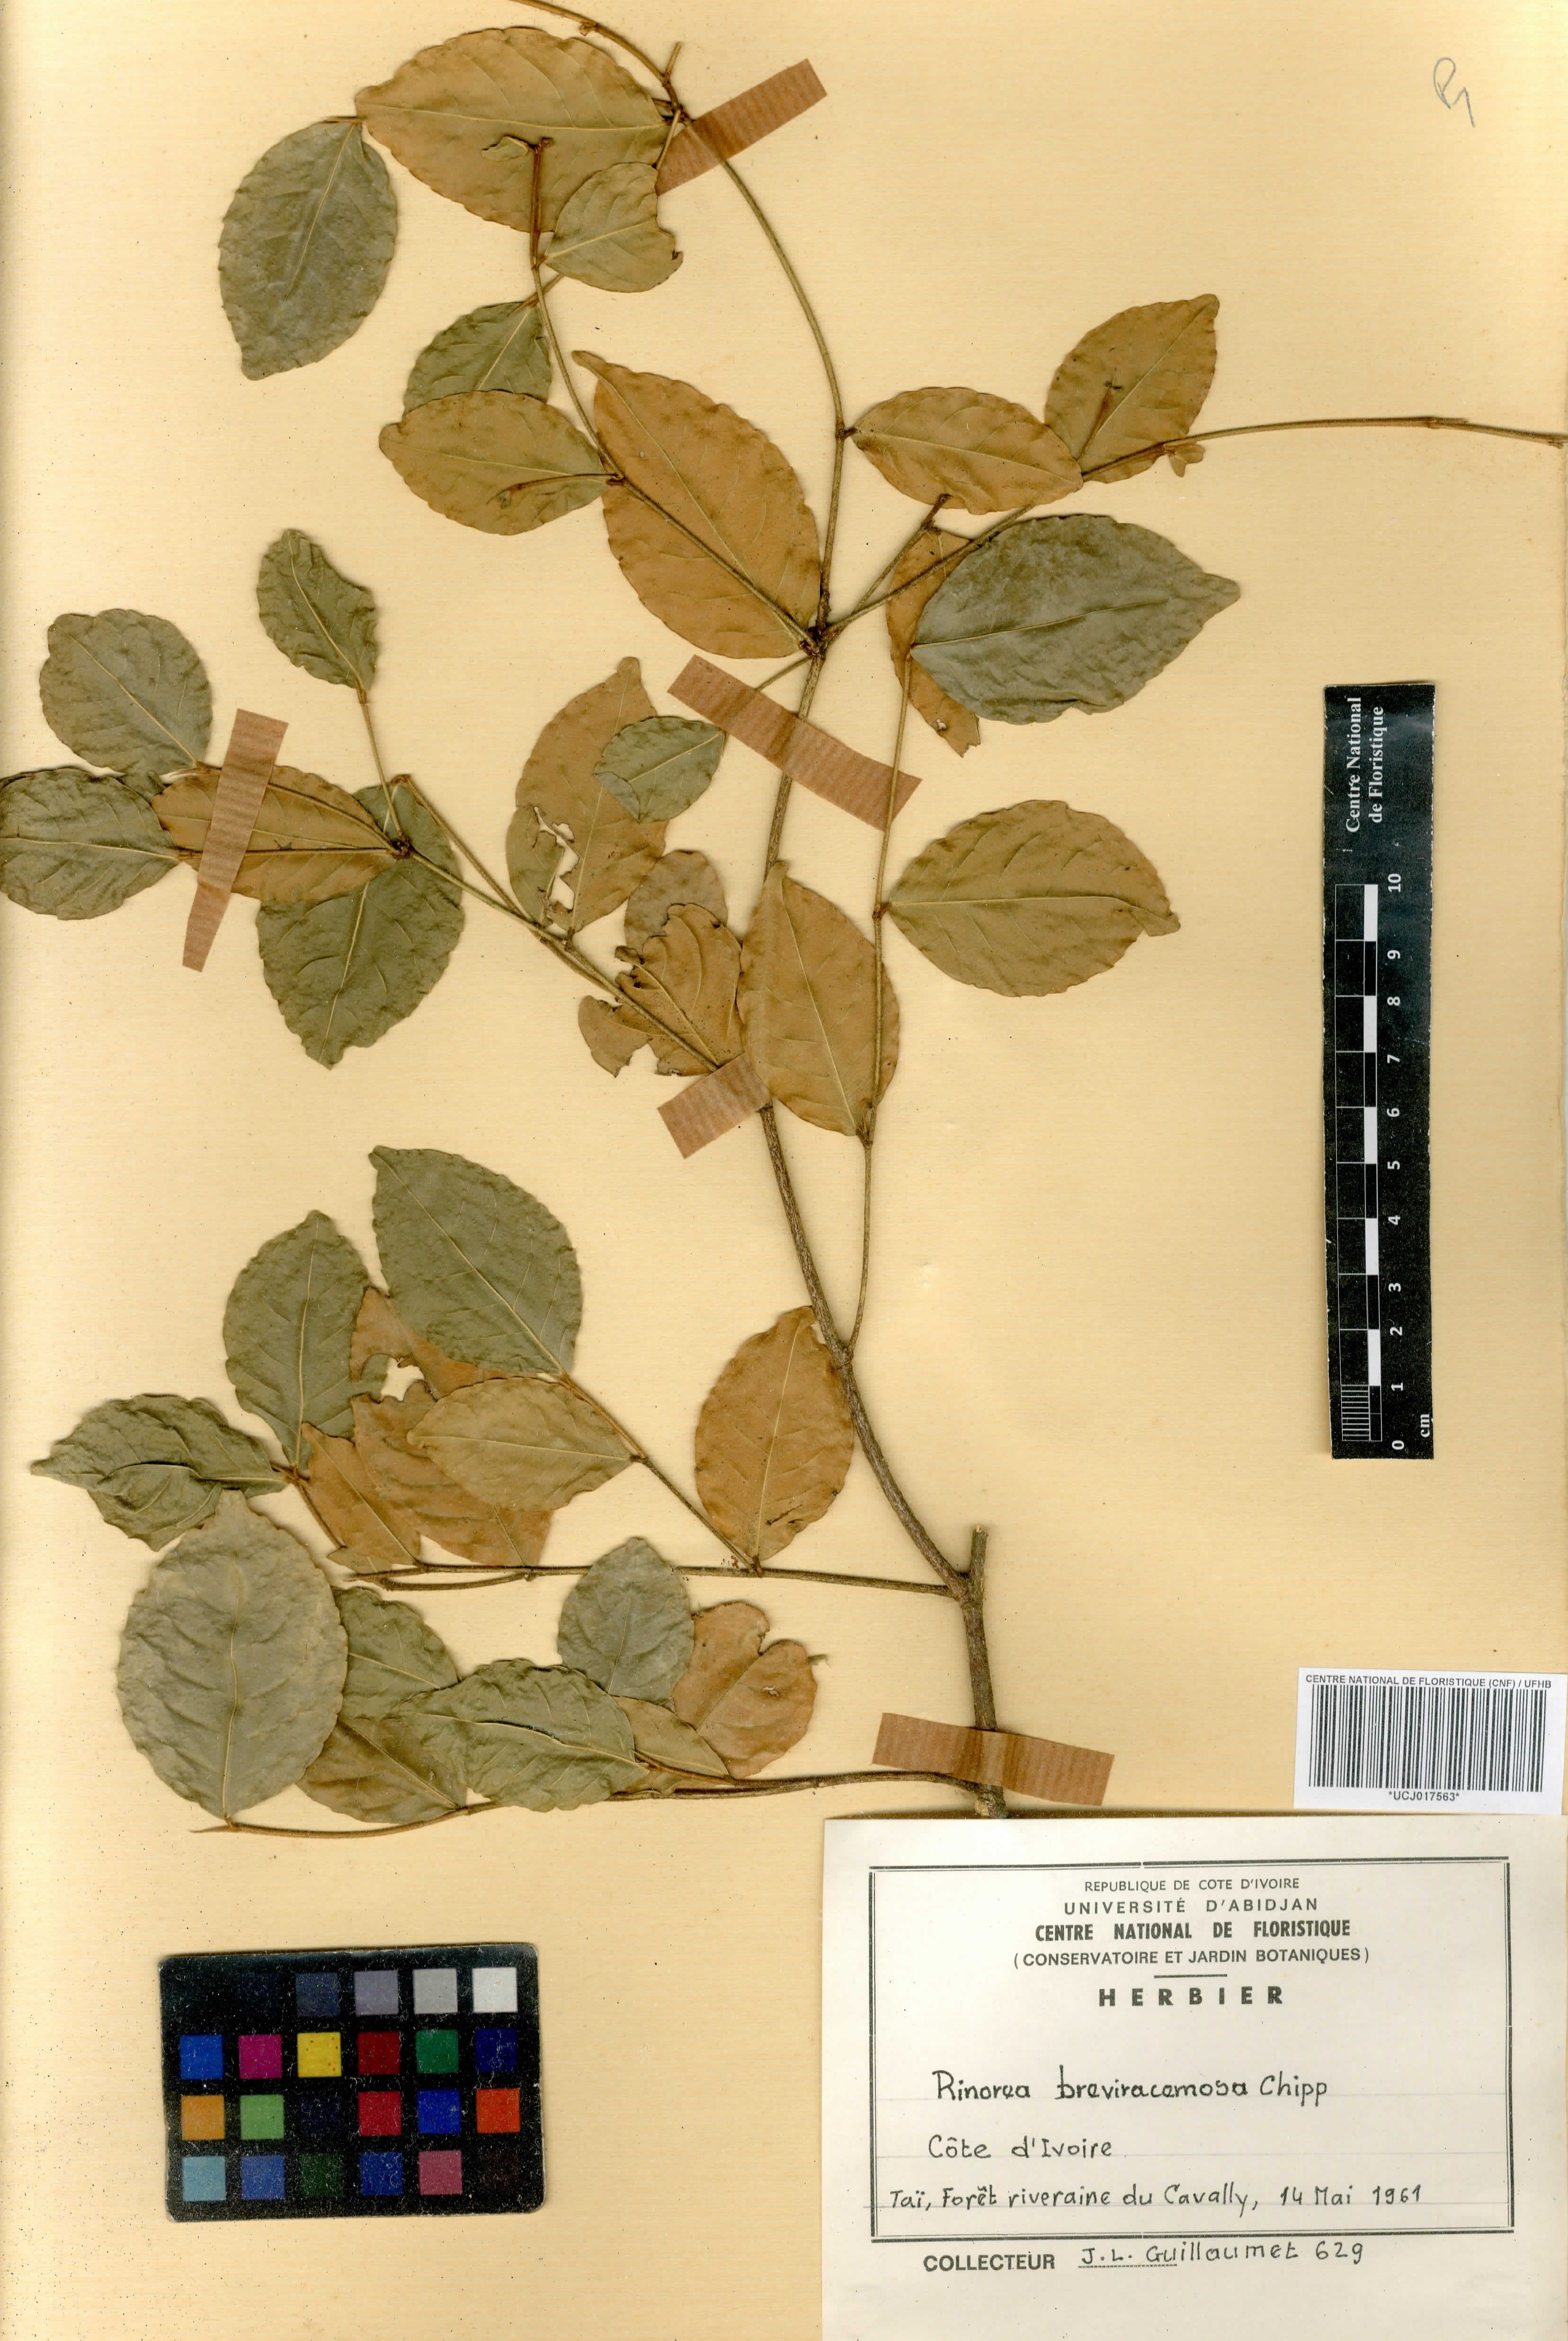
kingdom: Plantae
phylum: Tracheophyta
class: Magnoliopsida
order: Malpighiales
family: Violaceae
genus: Rinorea
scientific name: Rinorea breviracemosa
